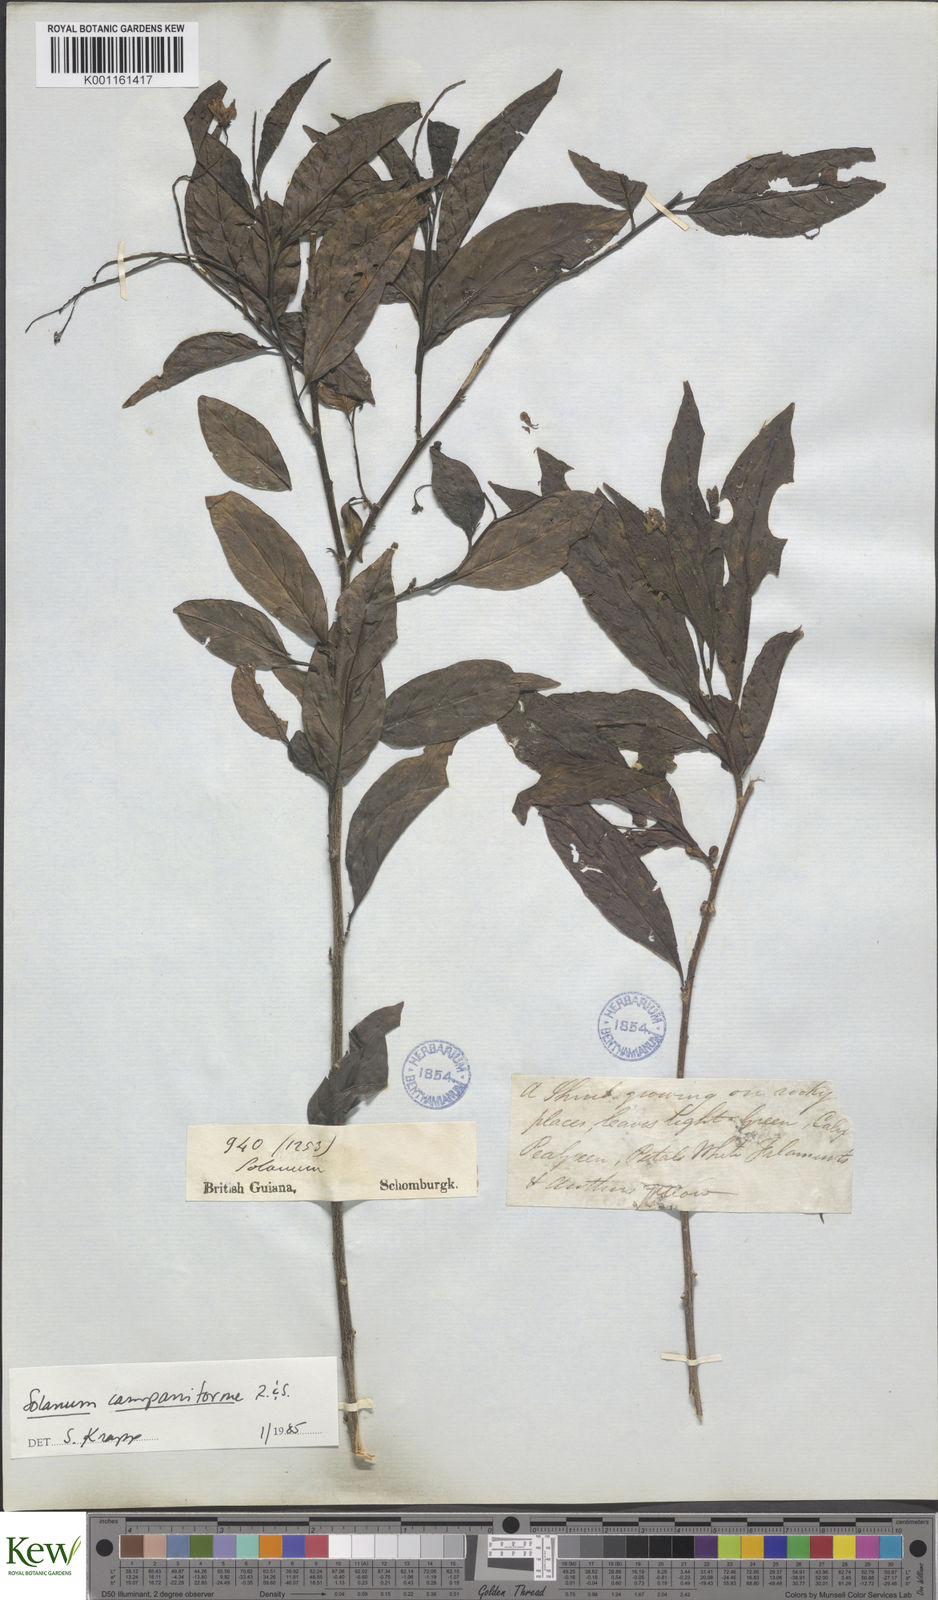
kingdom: Plantae
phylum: Tracheophyta
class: Magnoliopsida
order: Solanales
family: Solanaceae
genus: Solanum
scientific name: Solanum campaniforme
